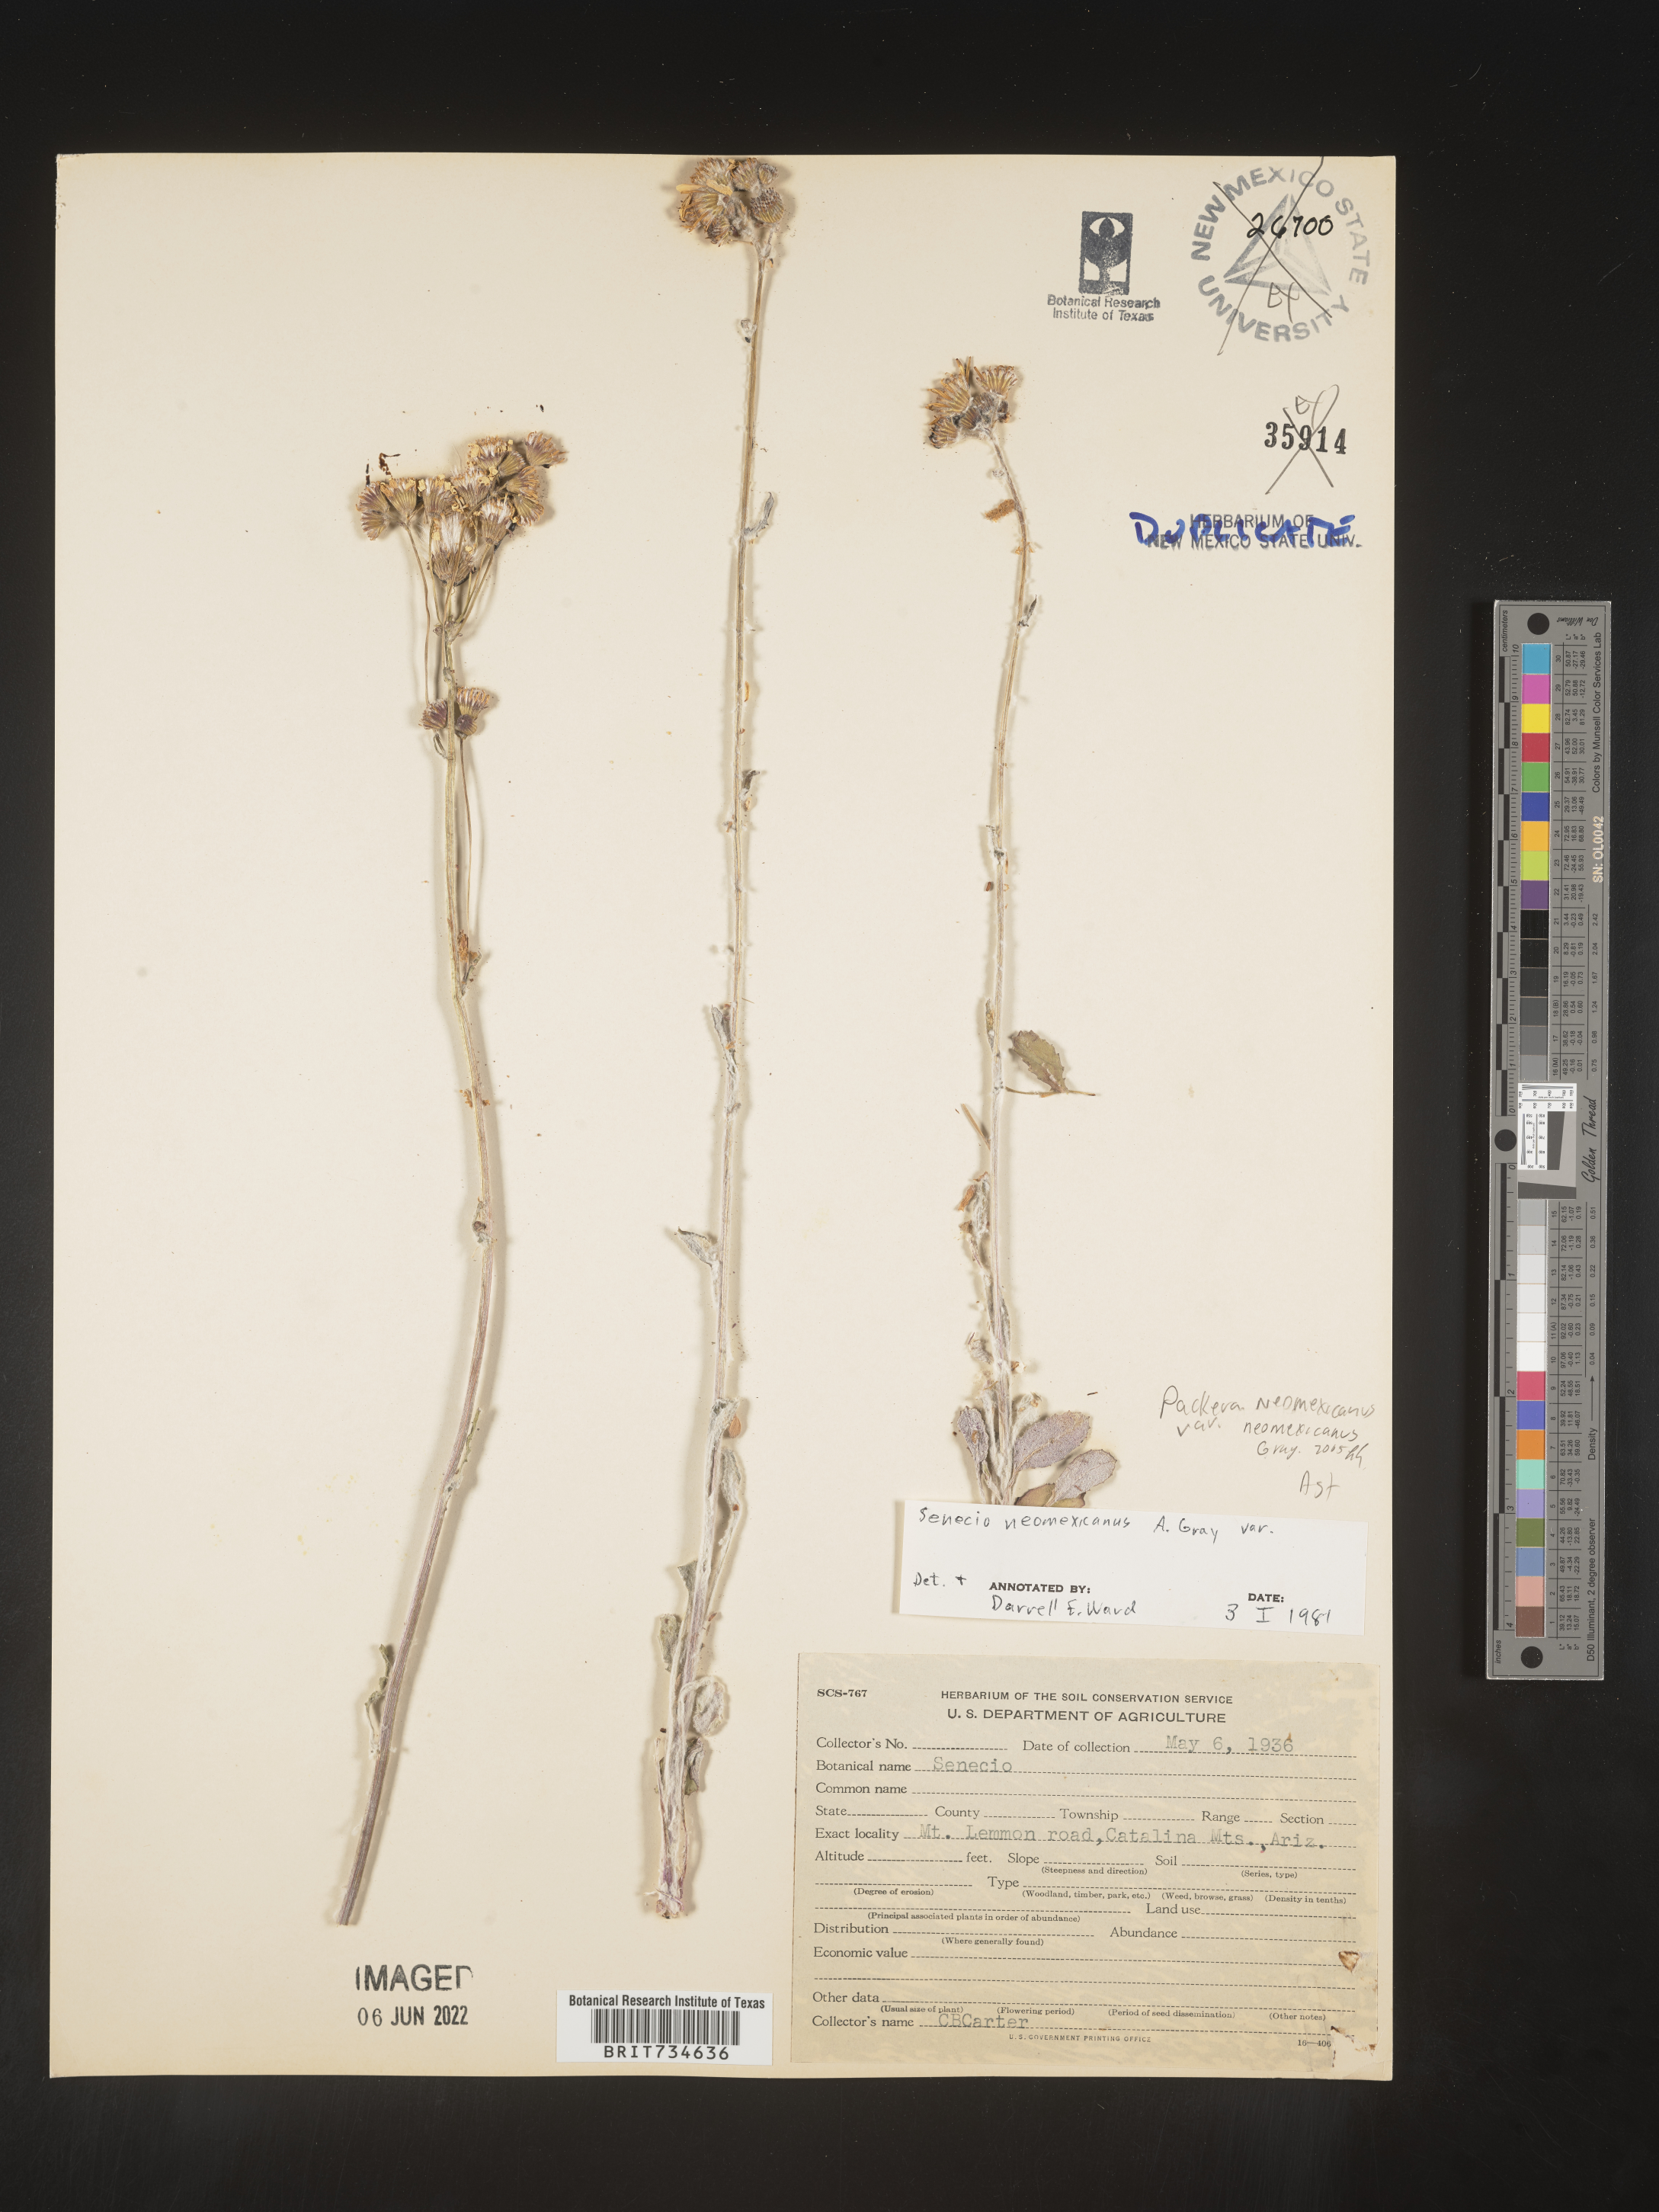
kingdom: Plantae
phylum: Tracheophyta
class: Magnoliopsida
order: Asterales
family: Asteraceae
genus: Packera
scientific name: Packera neomexicana
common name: New mexico butterweed
